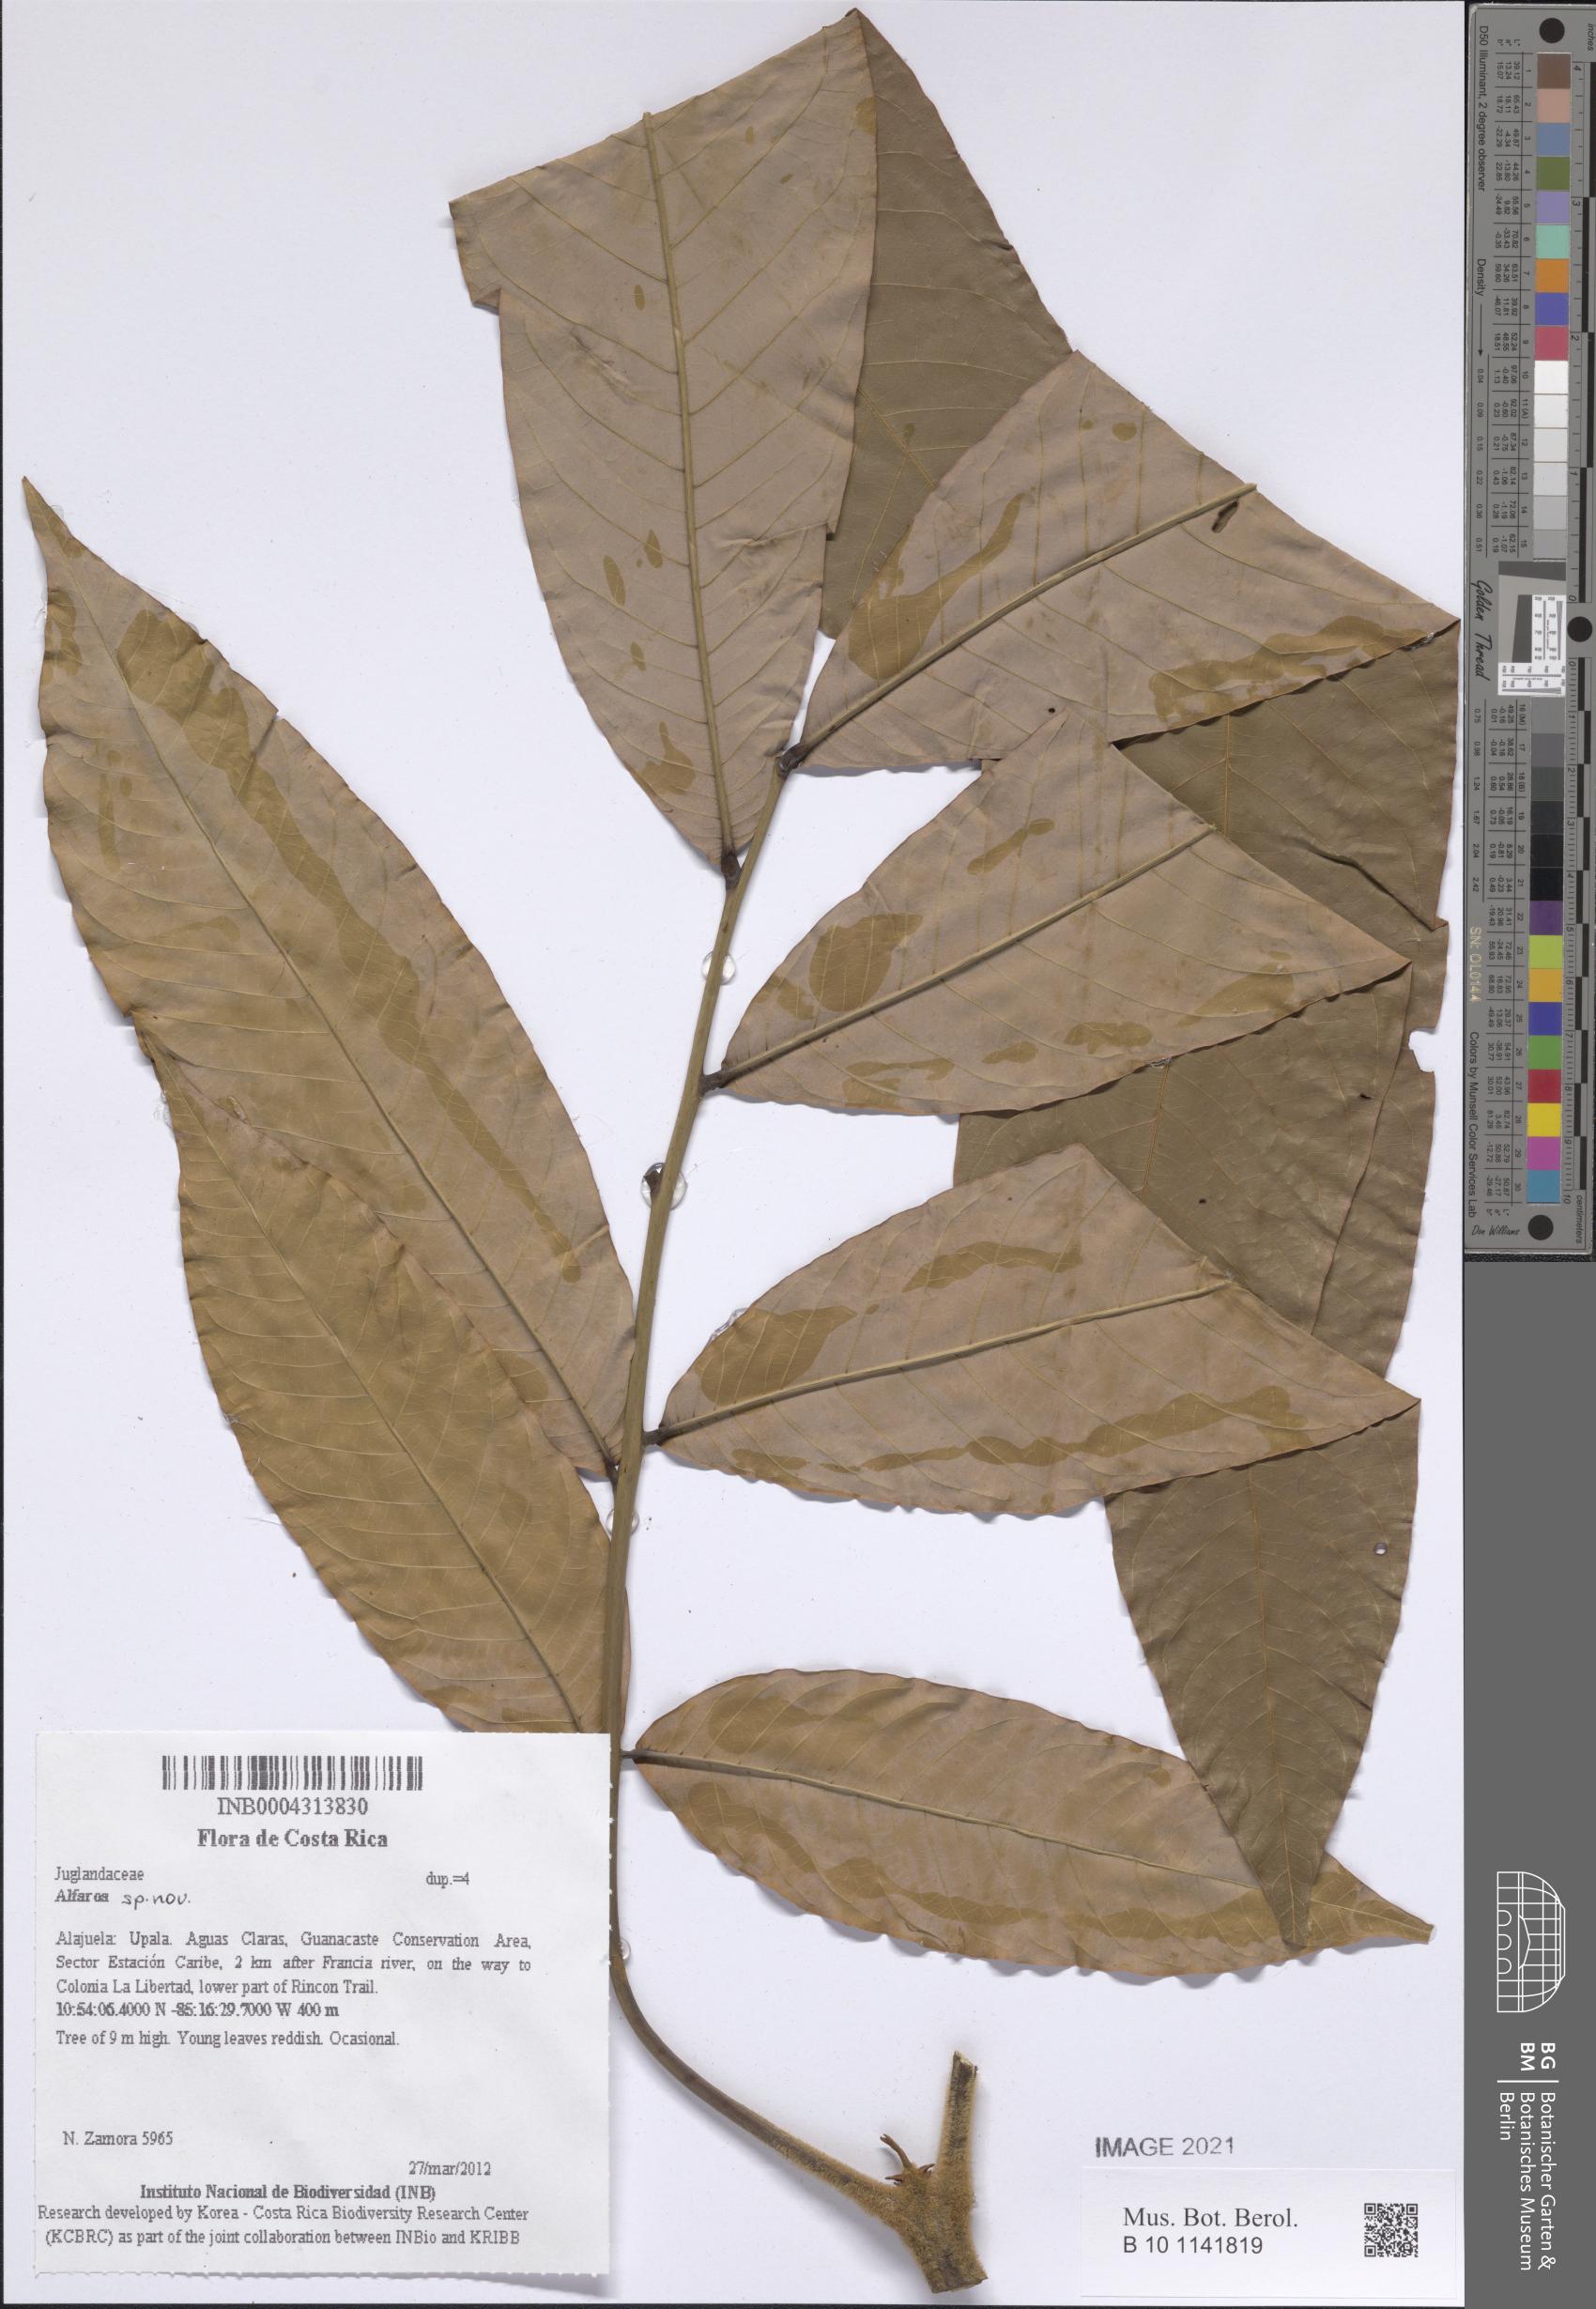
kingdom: Plantae
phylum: Tracheophyta
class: Magnoliopsida
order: Fagales
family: Juglandaceae
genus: Oreomunnea
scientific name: Oreomunnea pterocarpa
